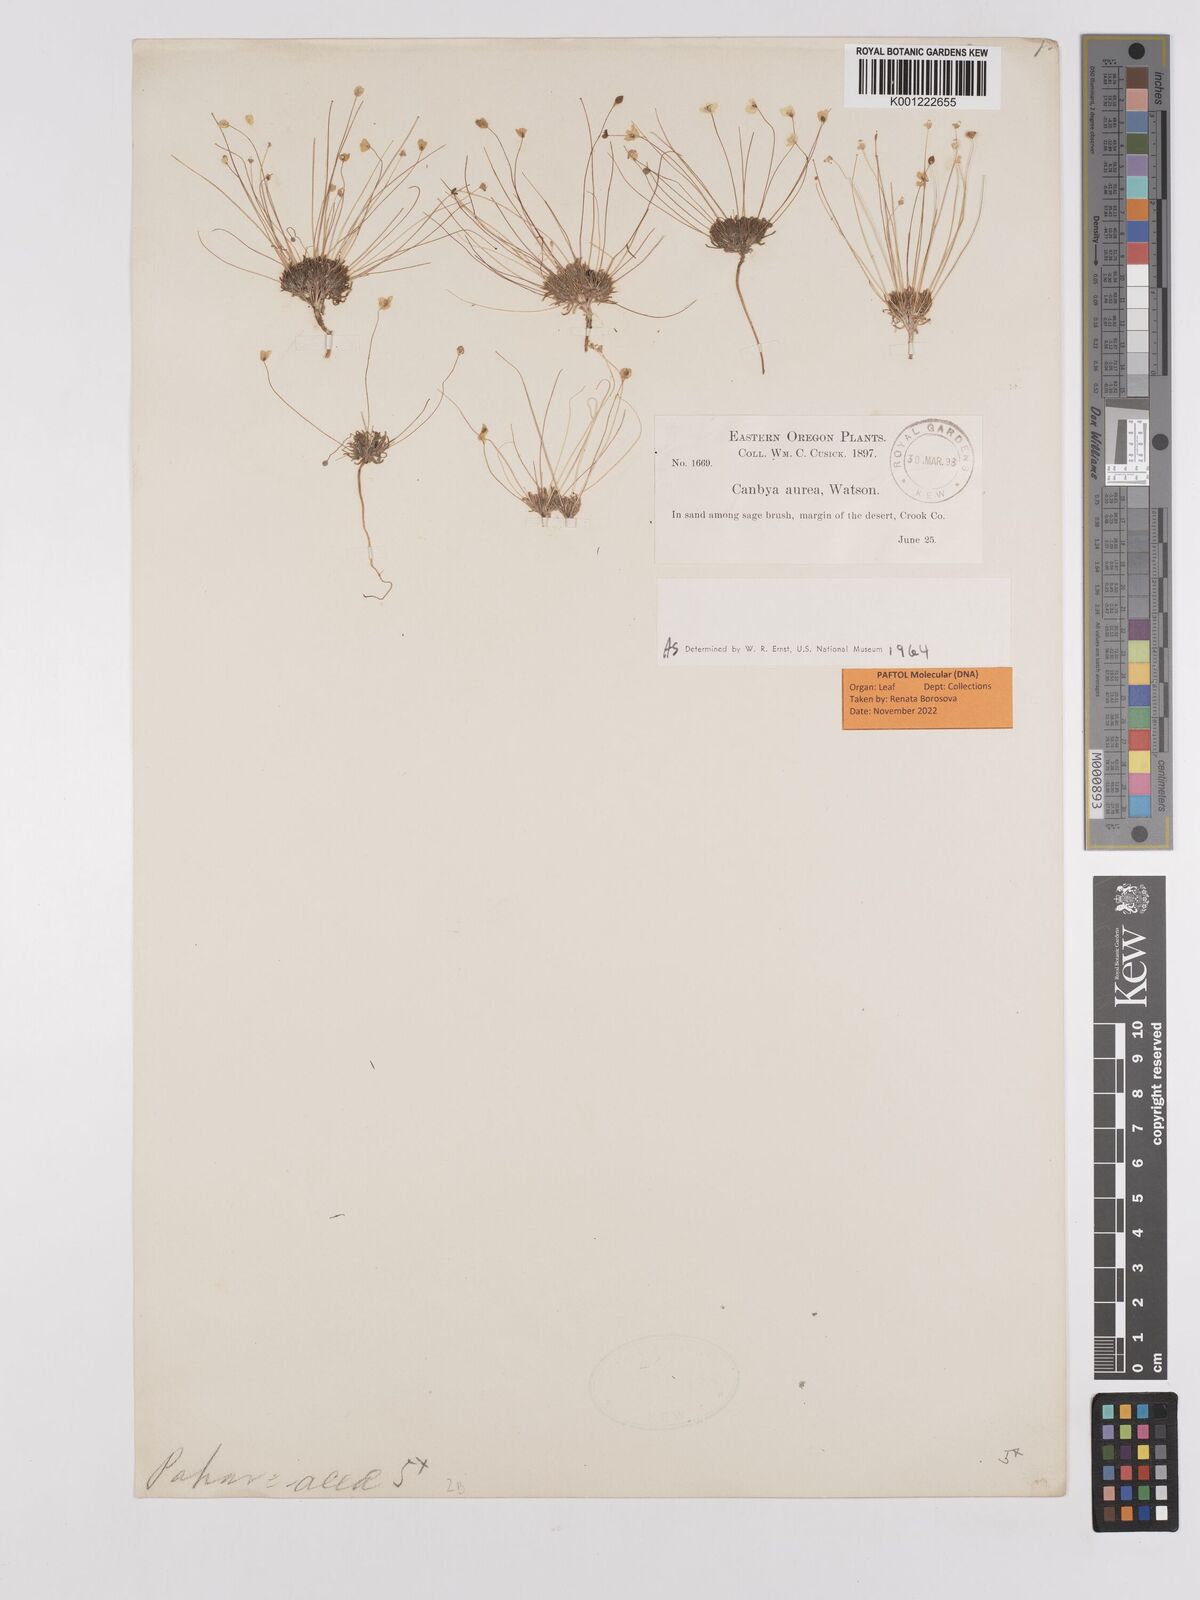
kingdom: Plantae
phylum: Tracheophyta
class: Magnoliopsida
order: Ranunculales
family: Papaveraceae
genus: Canbya
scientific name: Canbya aurea
